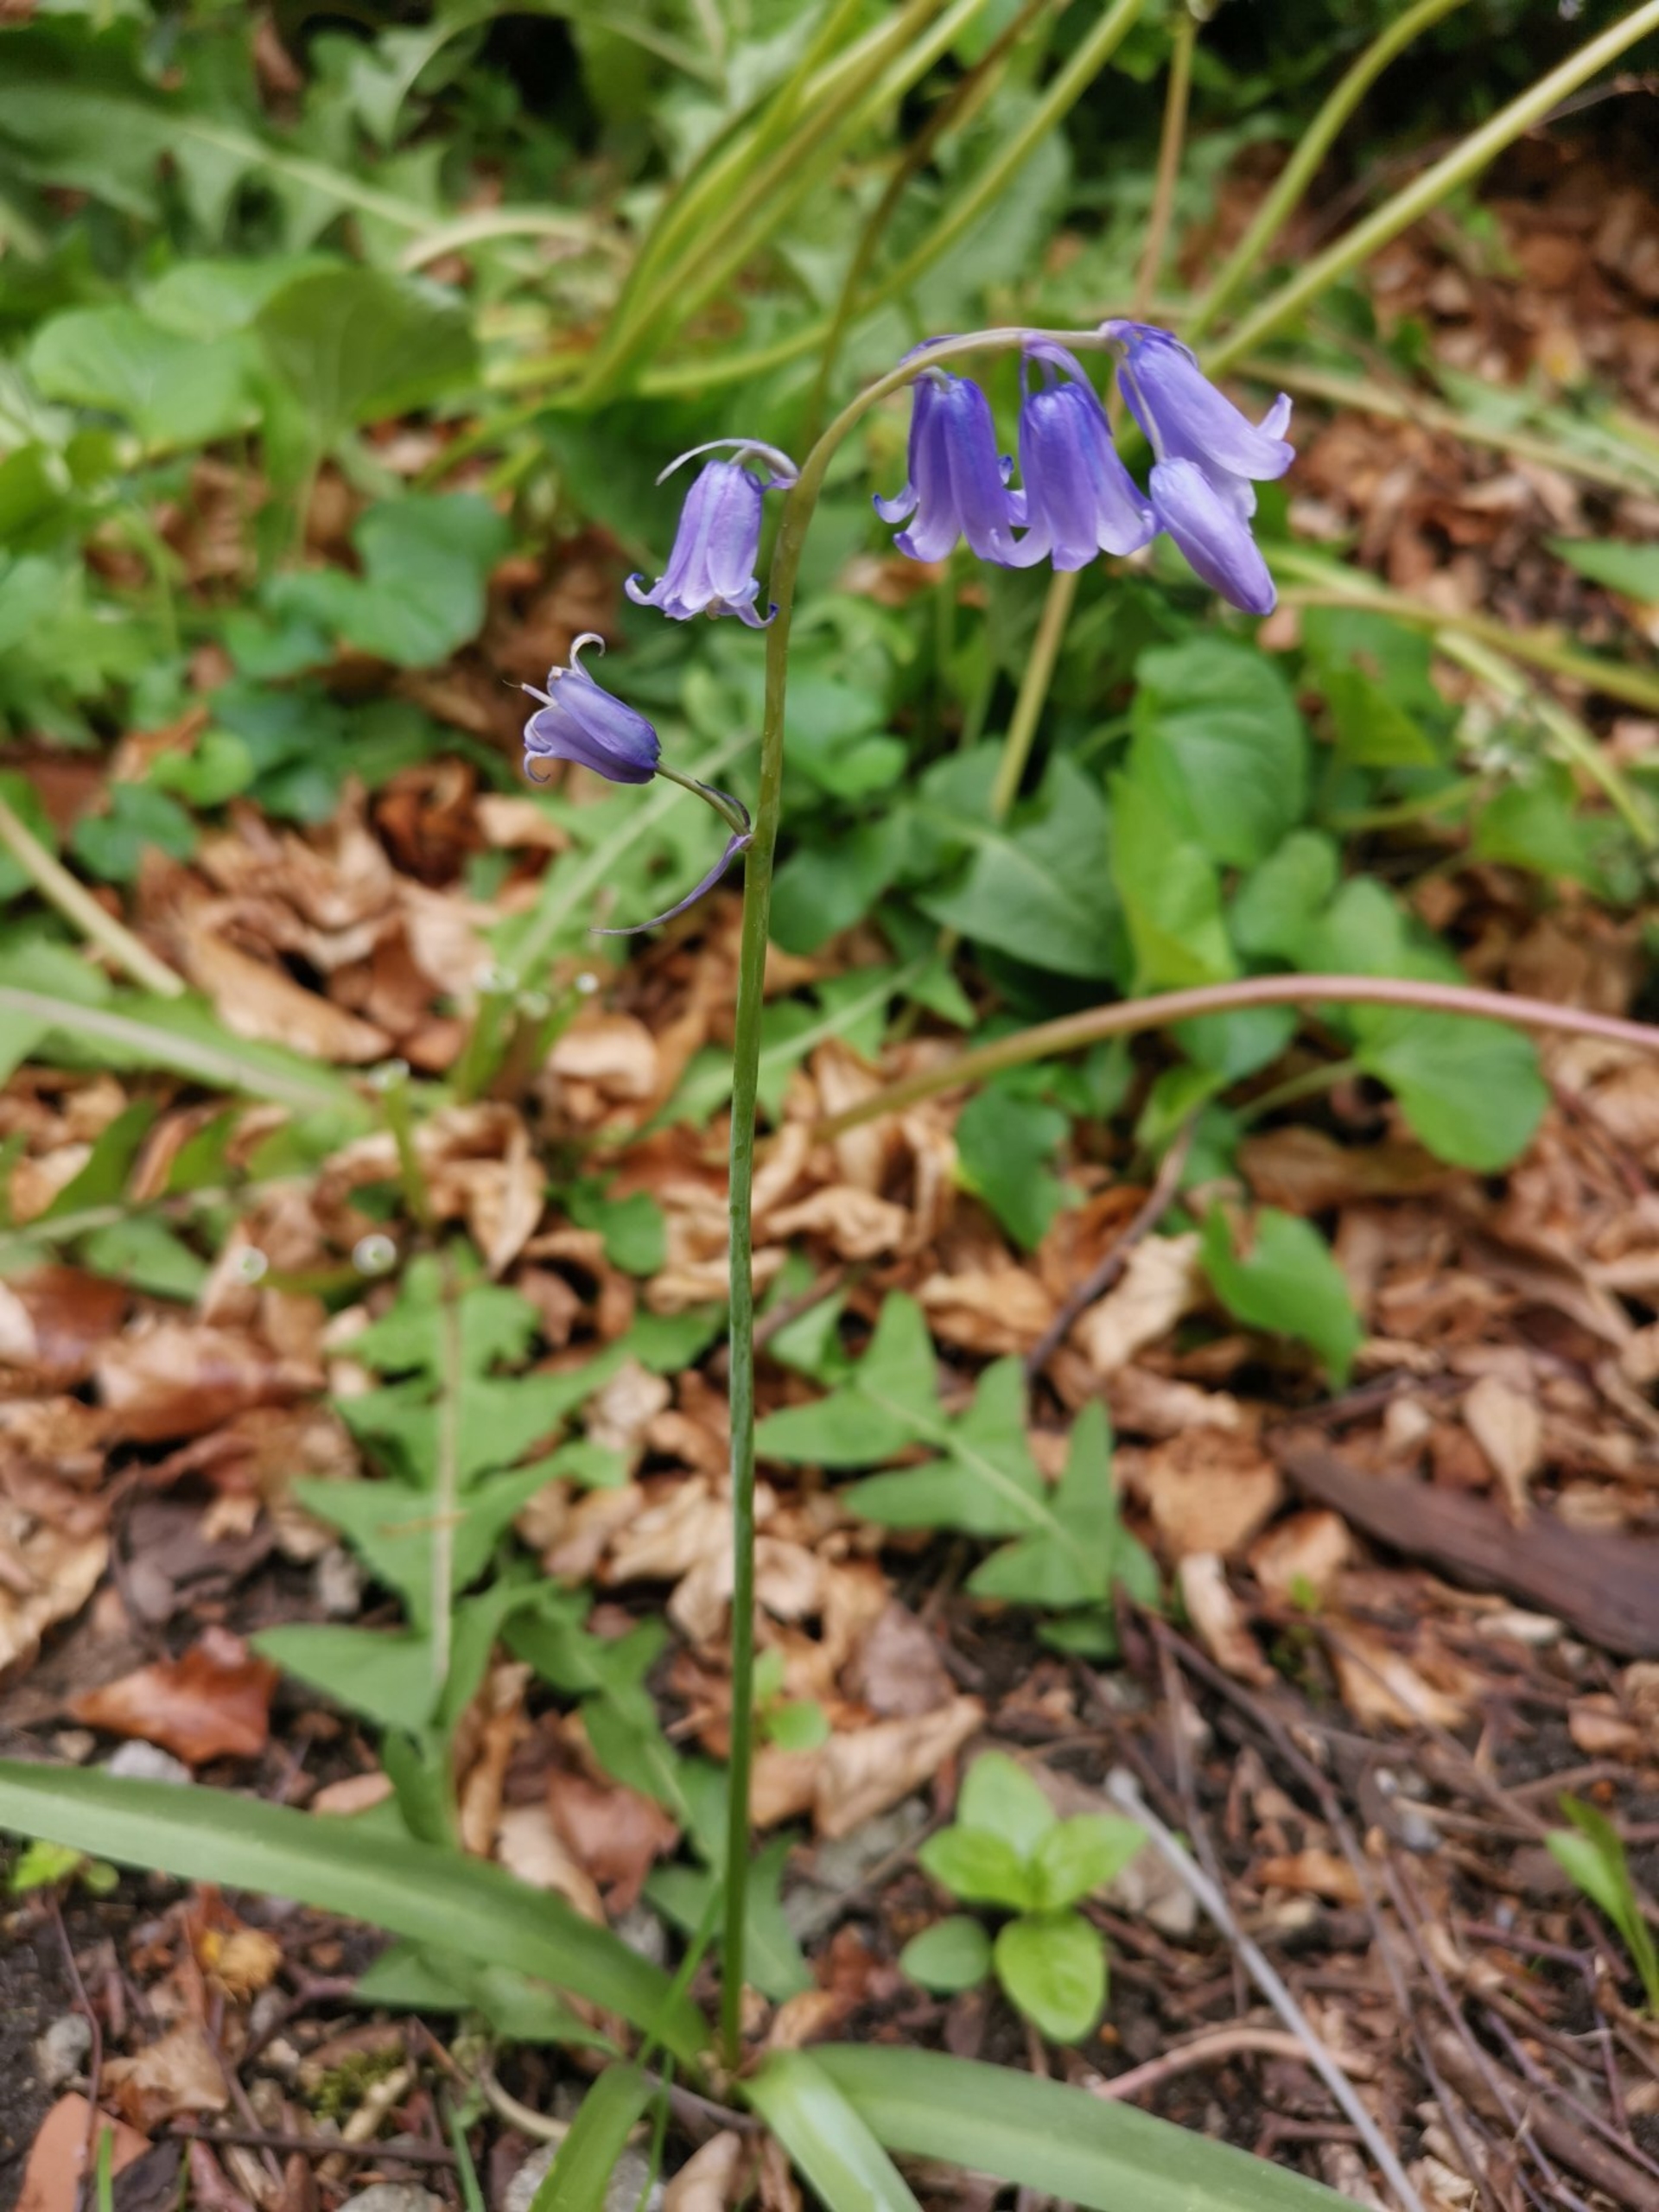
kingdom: Plantae
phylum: Tracheophyta
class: Liliopsida
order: Asparagales
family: Asparagaceae
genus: Hyacinthoides
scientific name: Hyacinthoides massartiana
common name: Hybrid-klokkeskilla
